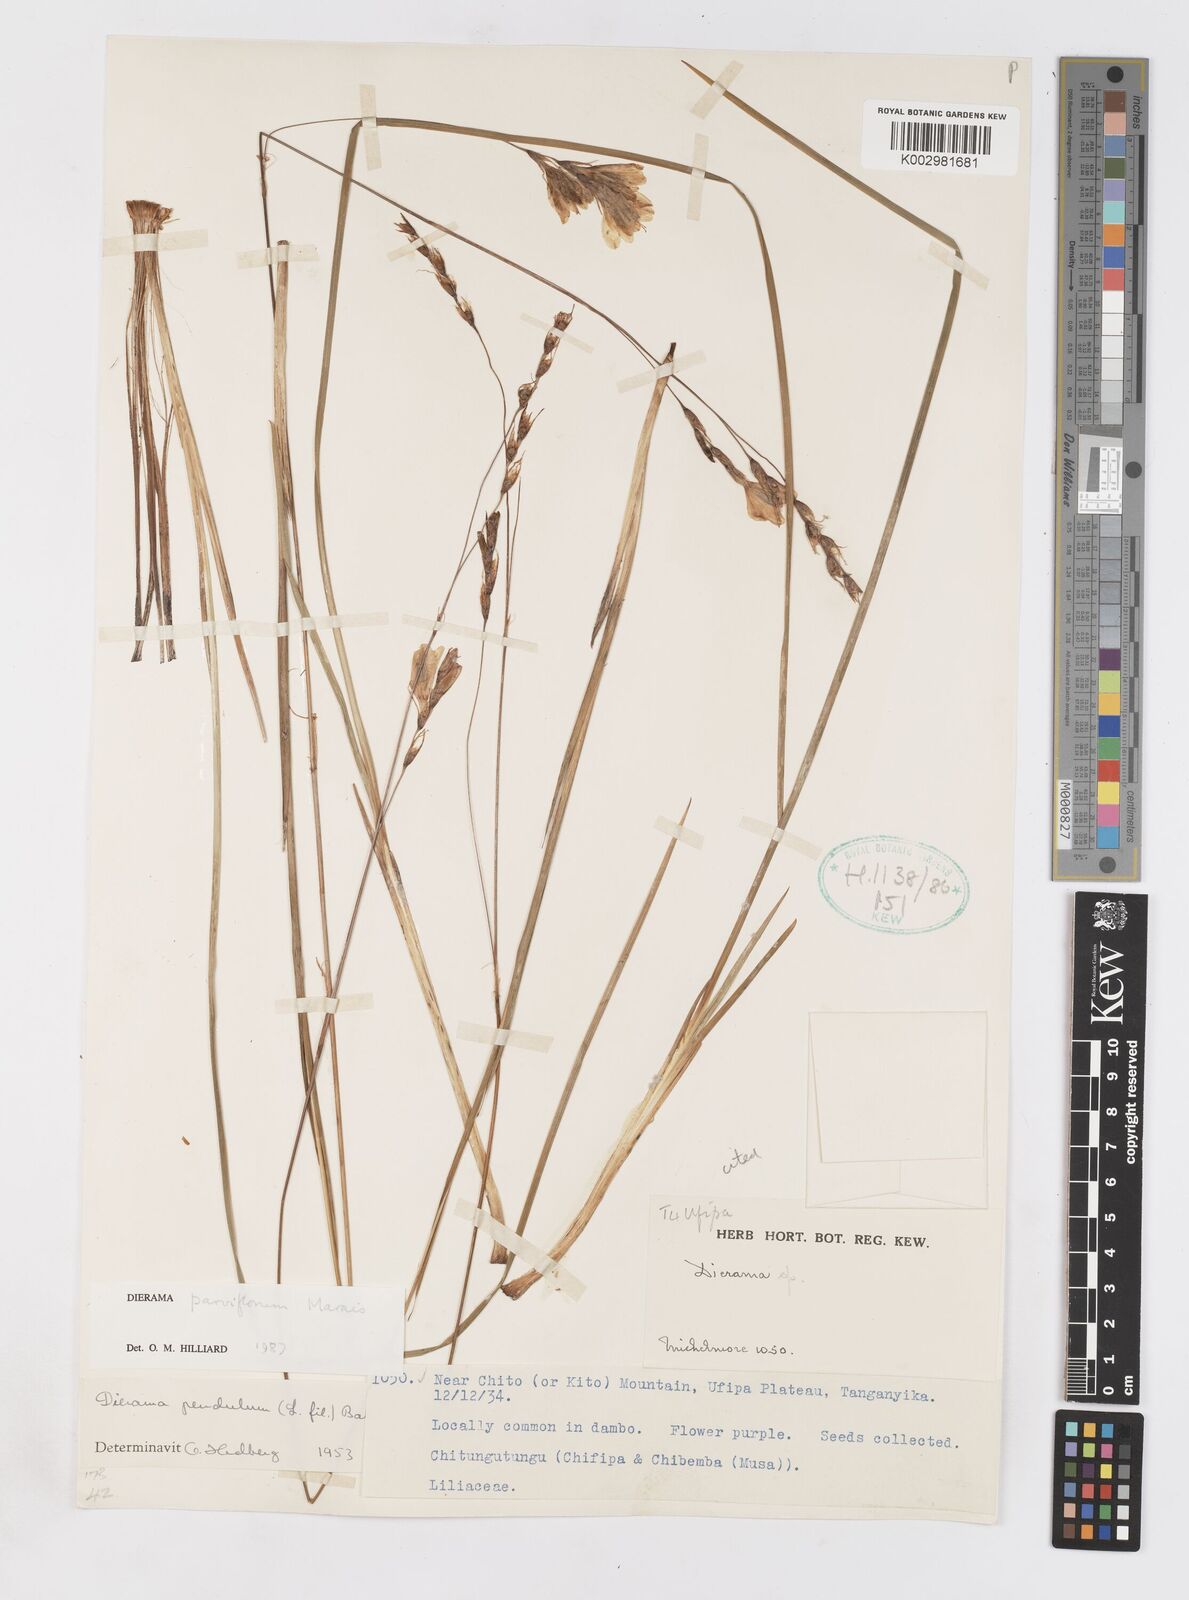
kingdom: Plantae
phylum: Tracheophyta
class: Liliopsida
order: Asparagales
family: Iridaceae
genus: Dierama
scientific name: Dierama parviflorum
